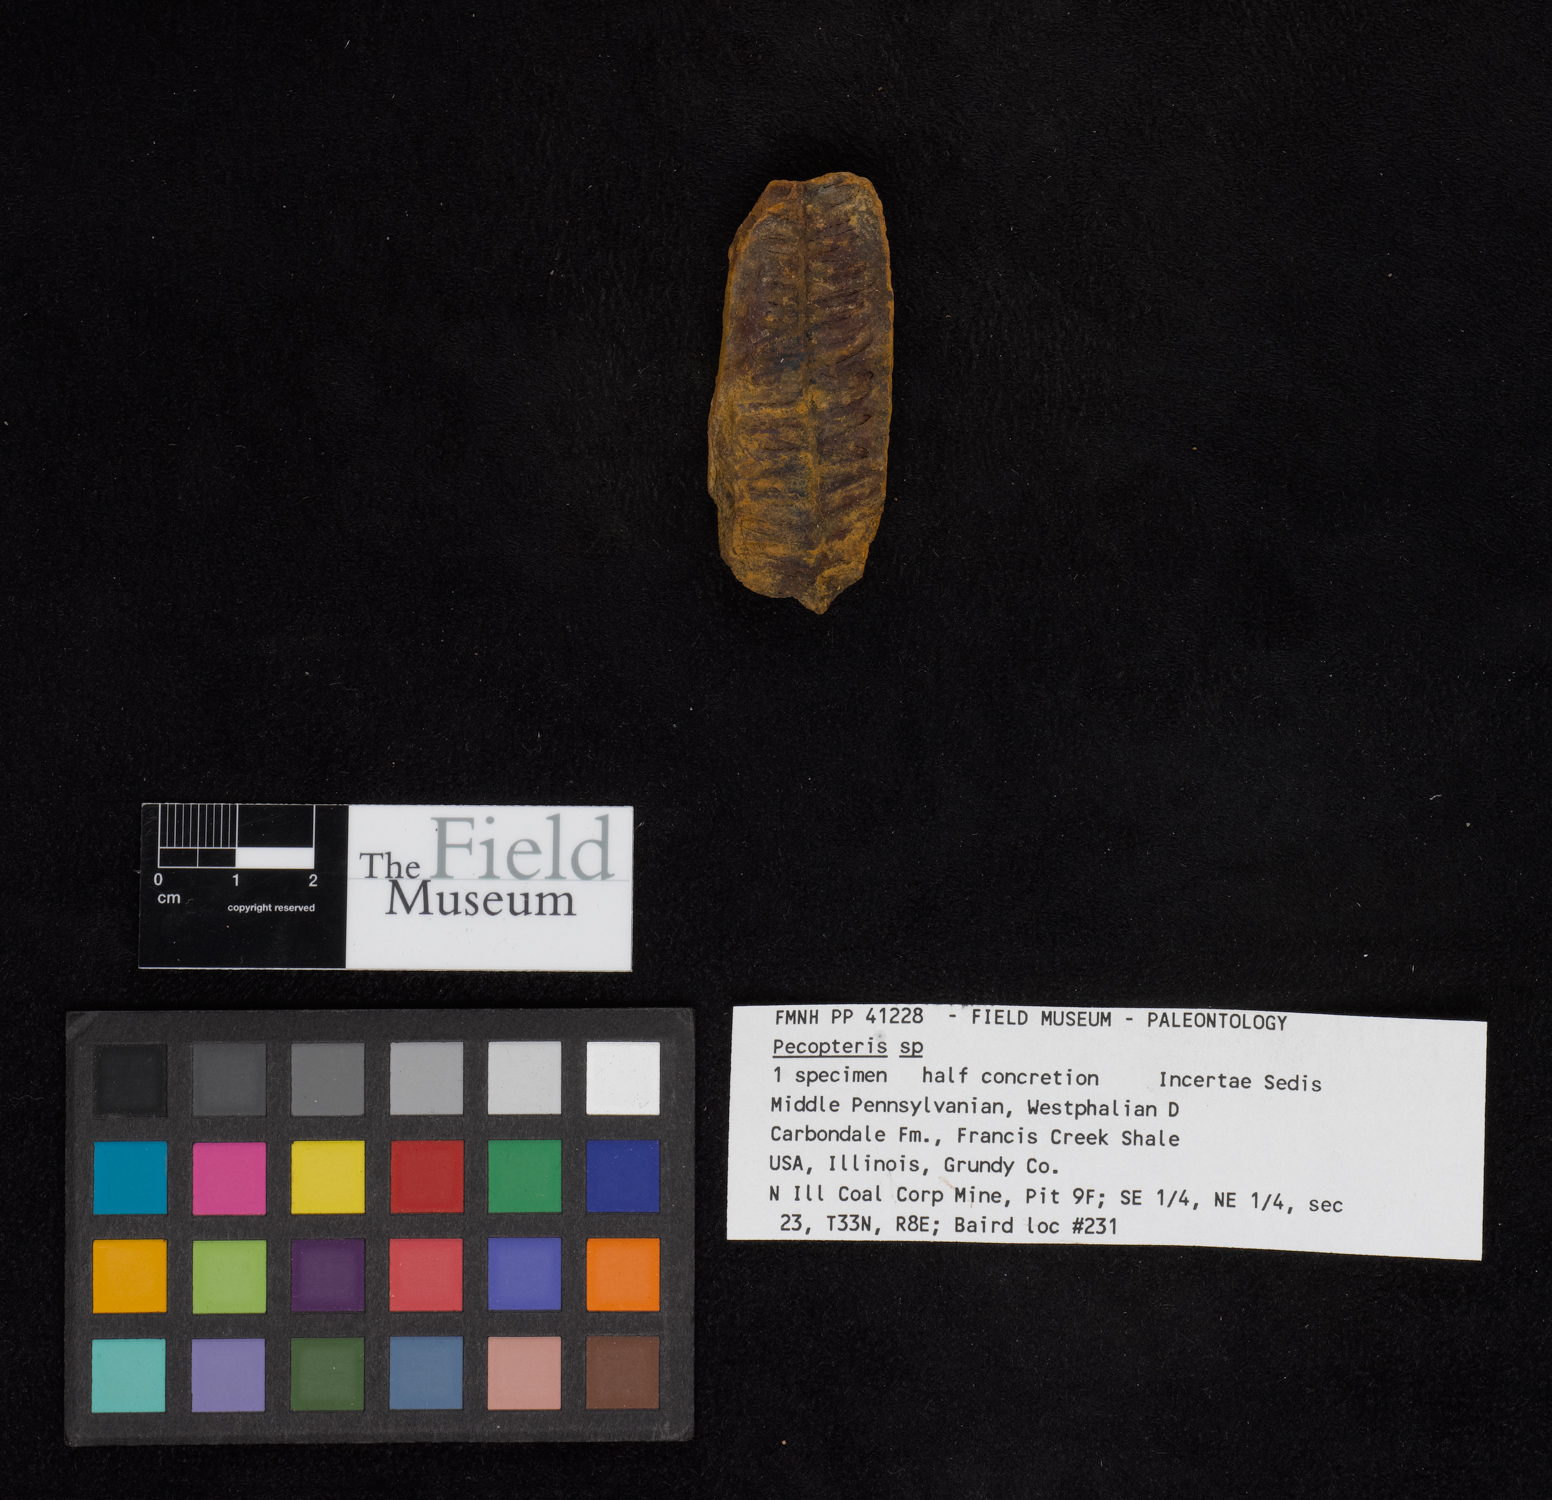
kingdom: Plantae
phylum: Tracheophyta
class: Polypodiopsida
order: Marattiales
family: Asterothecaceae
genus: Pecopteris
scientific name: Pecopteris
